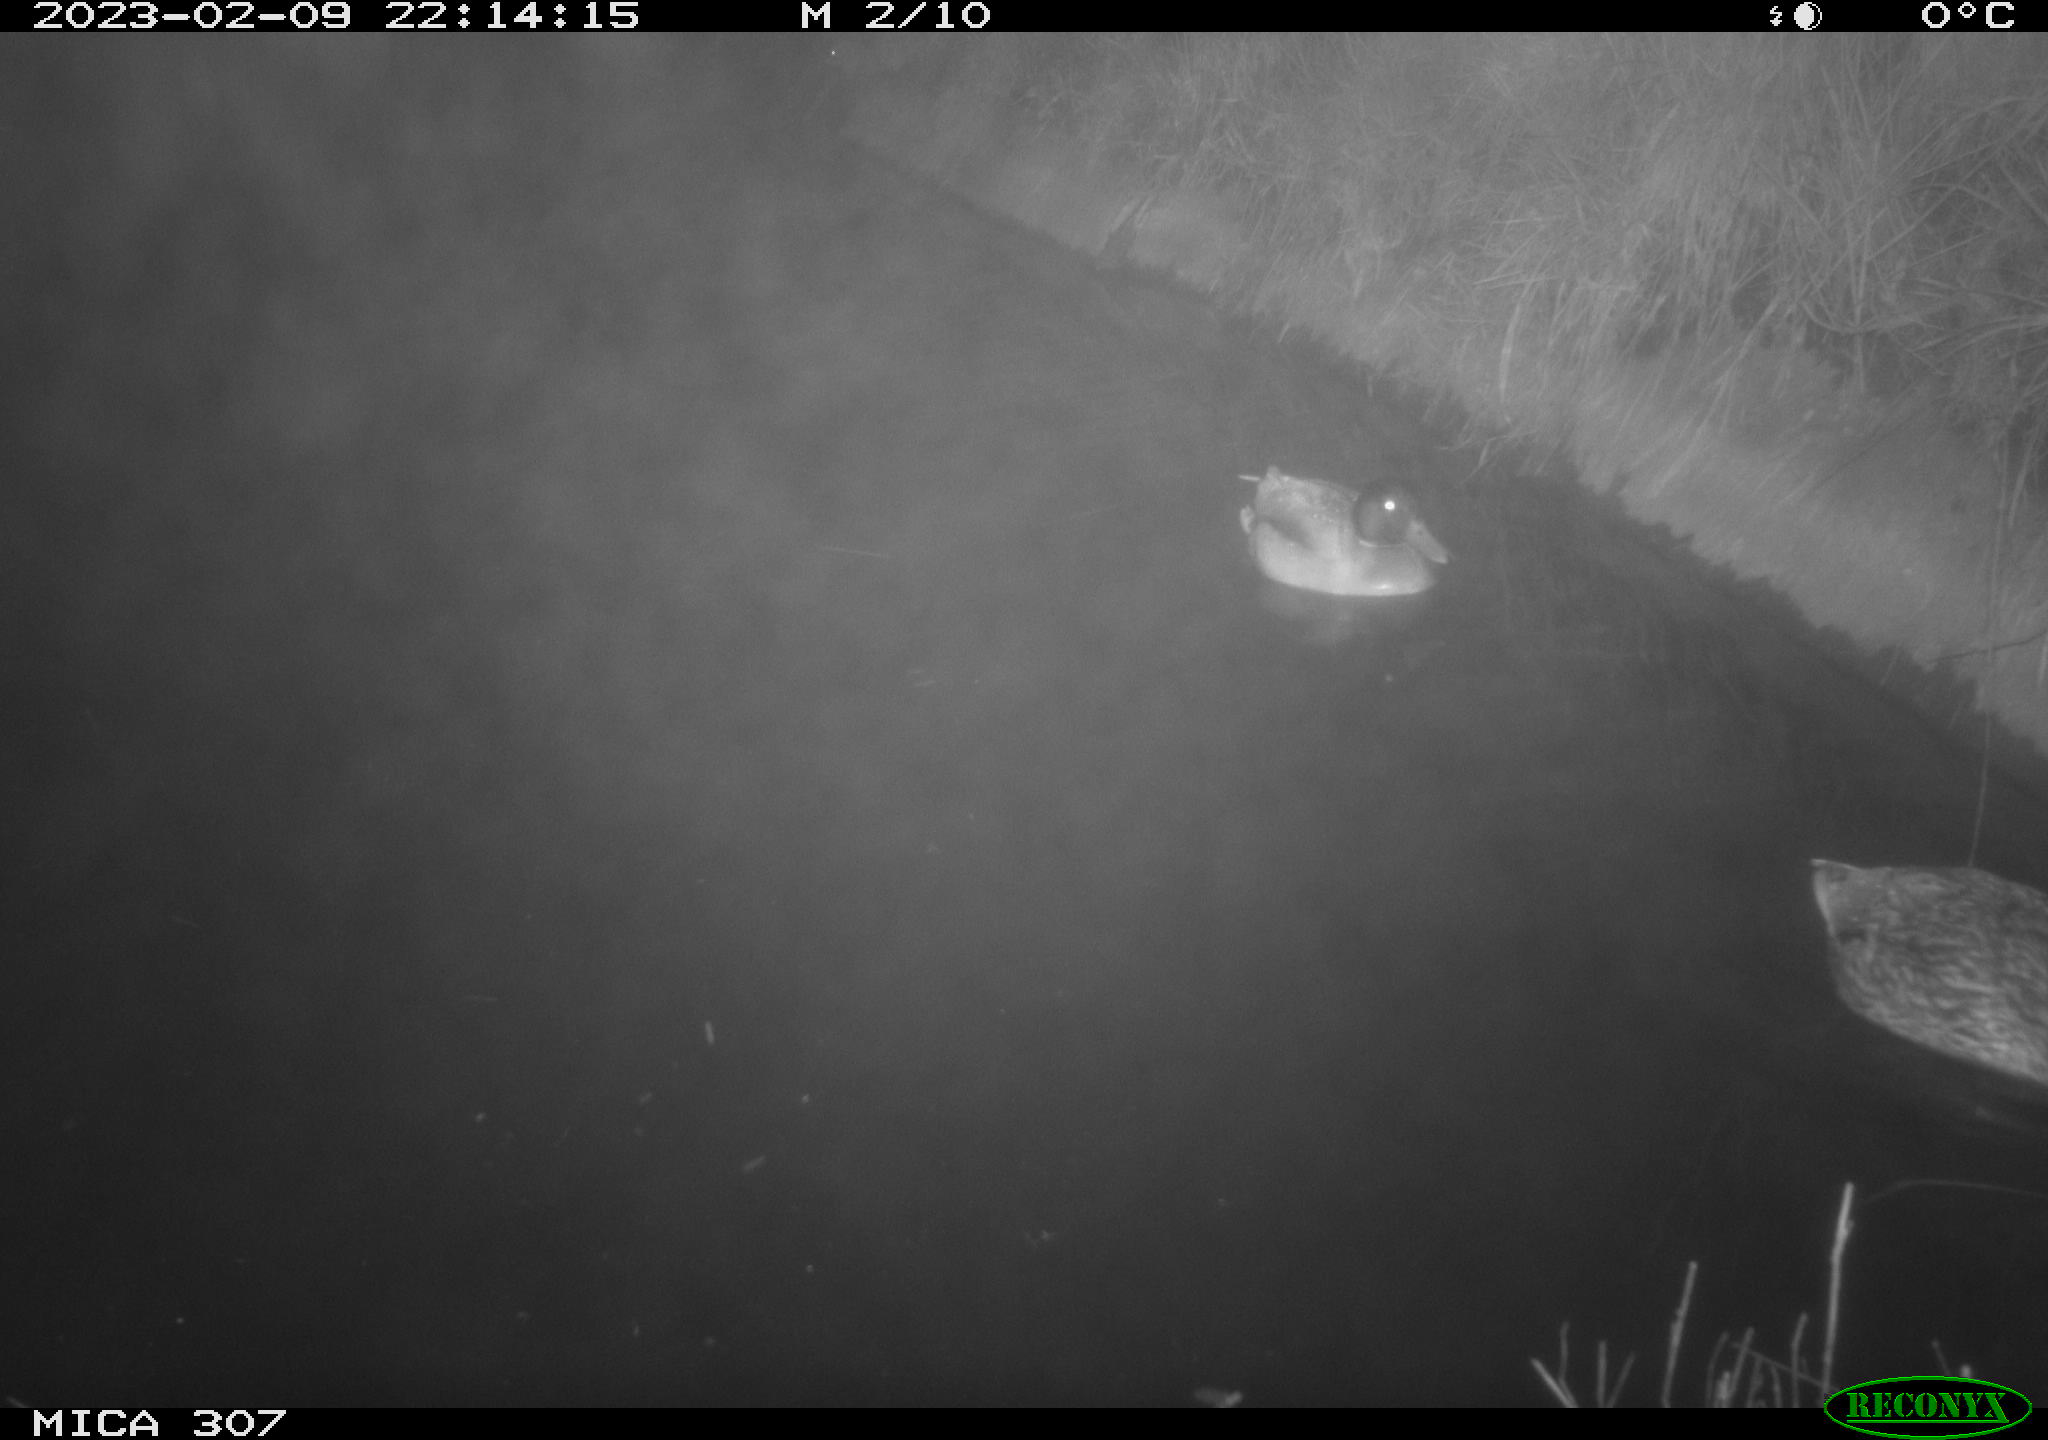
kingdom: Animalia
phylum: Chordata
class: Aves
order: Anseriformes
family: Anatidae
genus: Anas
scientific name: Anas
